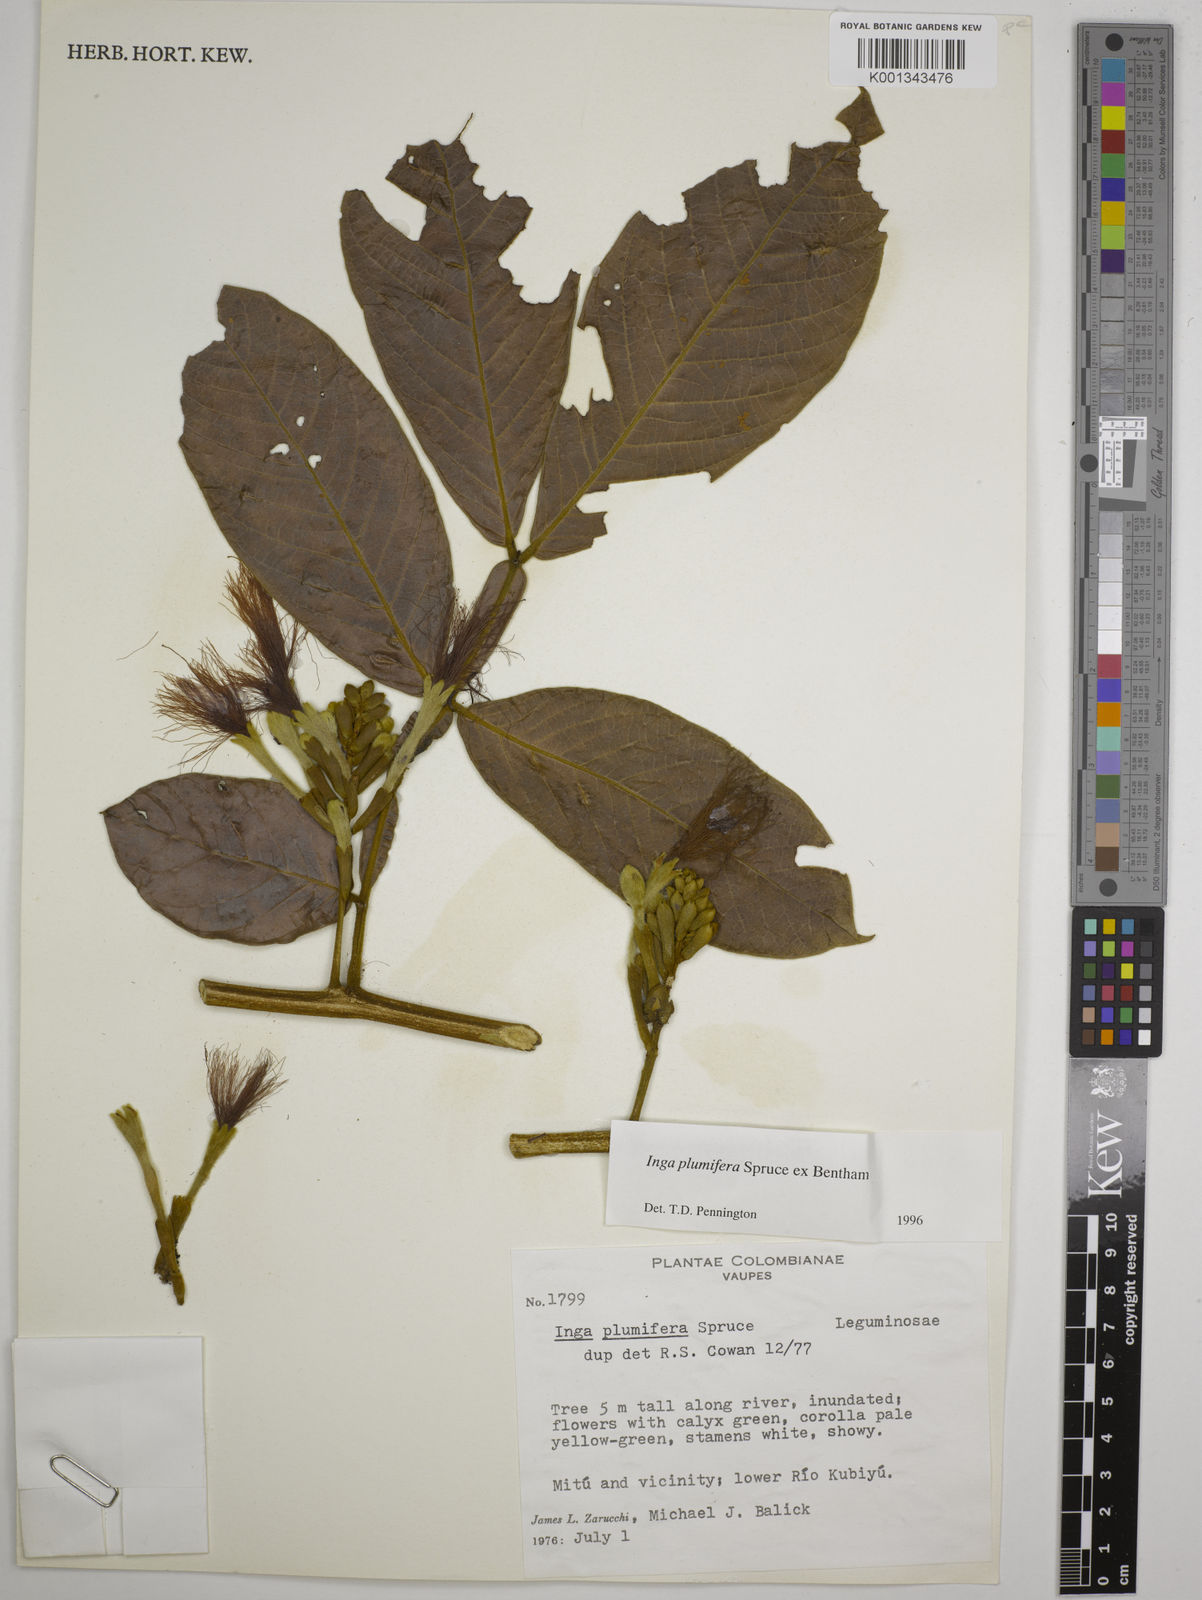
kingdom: Plantae
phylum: Tracheophyta
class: Magnoliopsida
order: Fabales
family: Fabaceae
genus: Inga
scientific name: Inga plumifera
